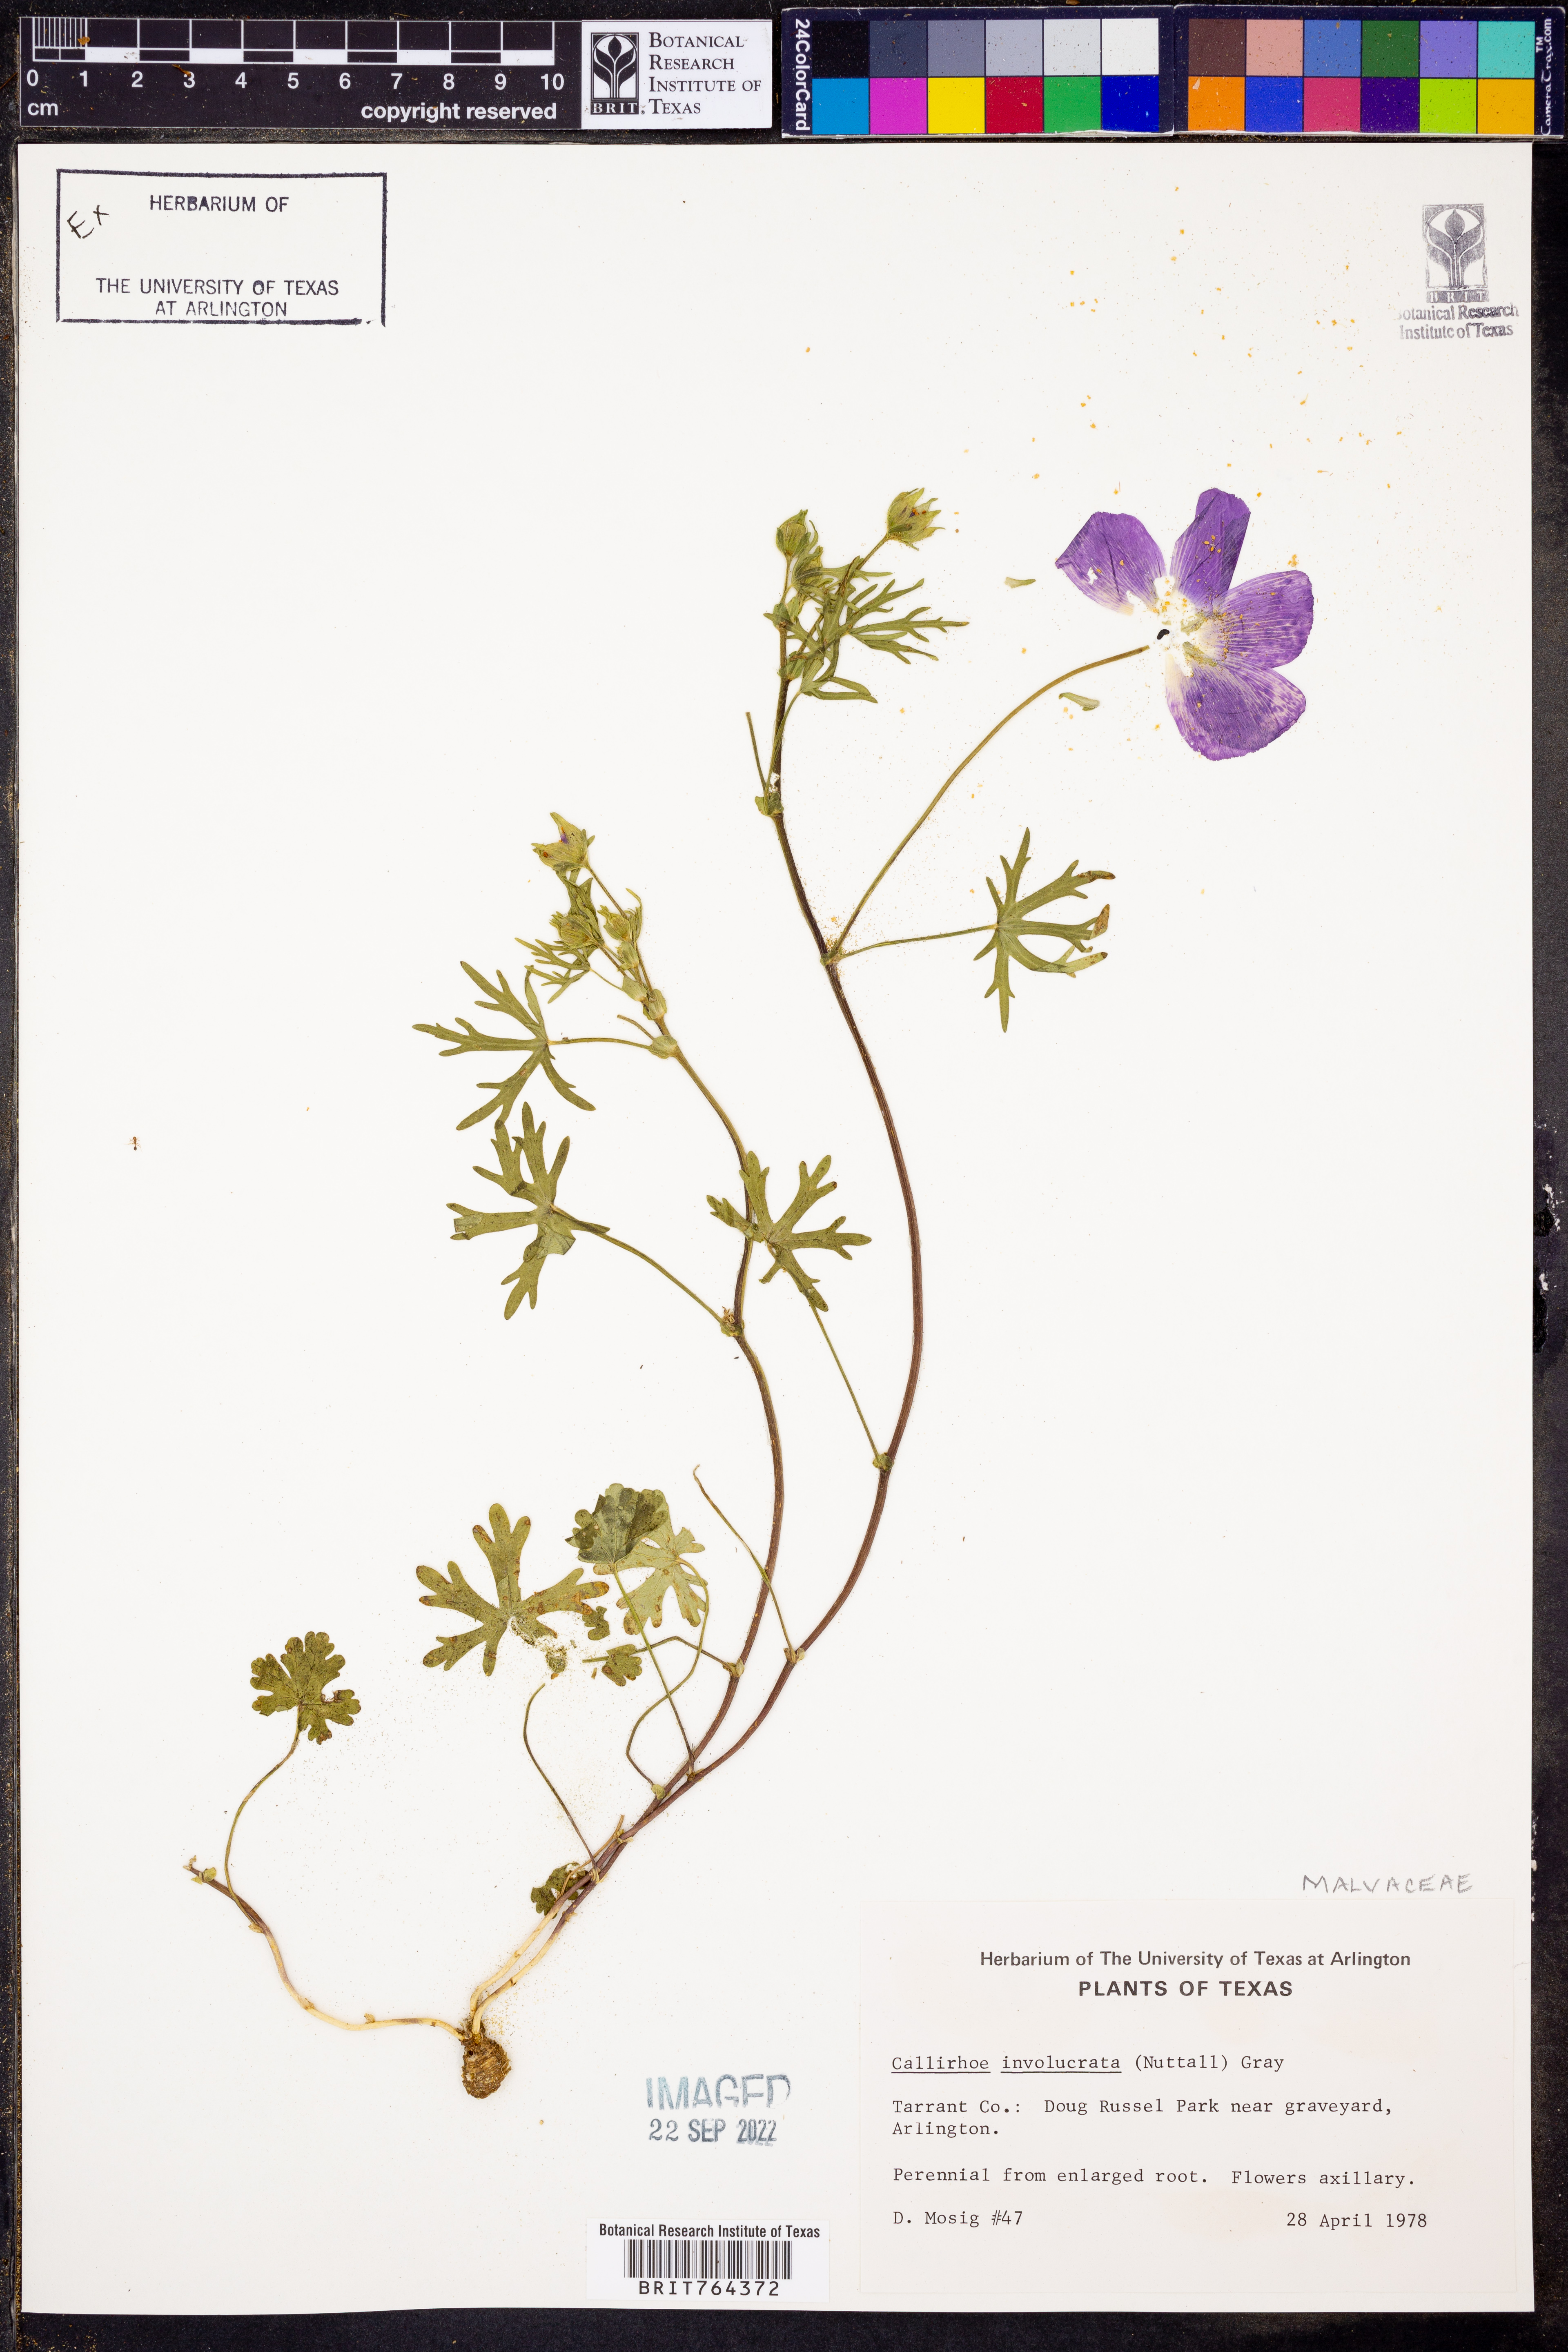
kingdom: Plantae
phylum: Tracheophyta
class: Magnoliopsida
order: Malvales
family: Malvaceae
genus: Callirhoe
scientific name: Callirhoe involucrata
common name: Purple poppy-mallow
